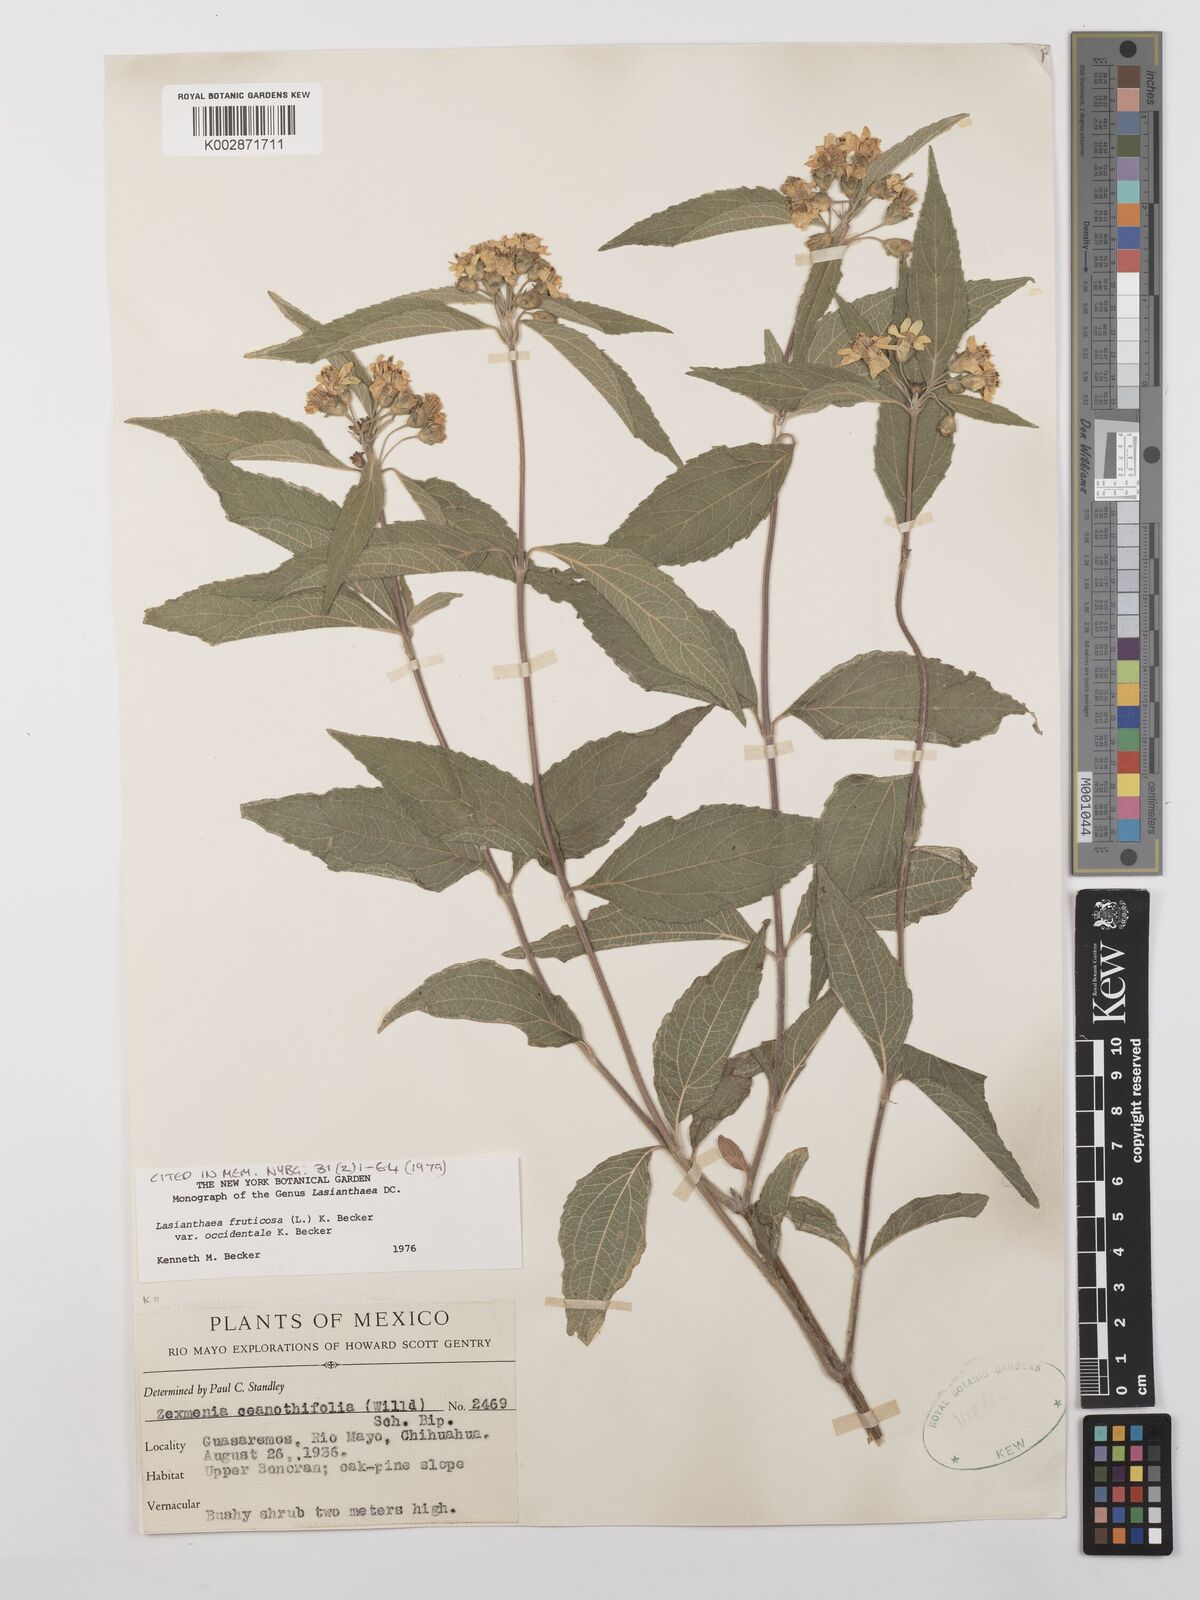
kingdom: Plantae
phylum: Tracheophyta
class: Magnoliopsida
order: Asterales
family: Asteraceae
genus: Lasianthaea
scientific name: Lasianthaea fruticosa
